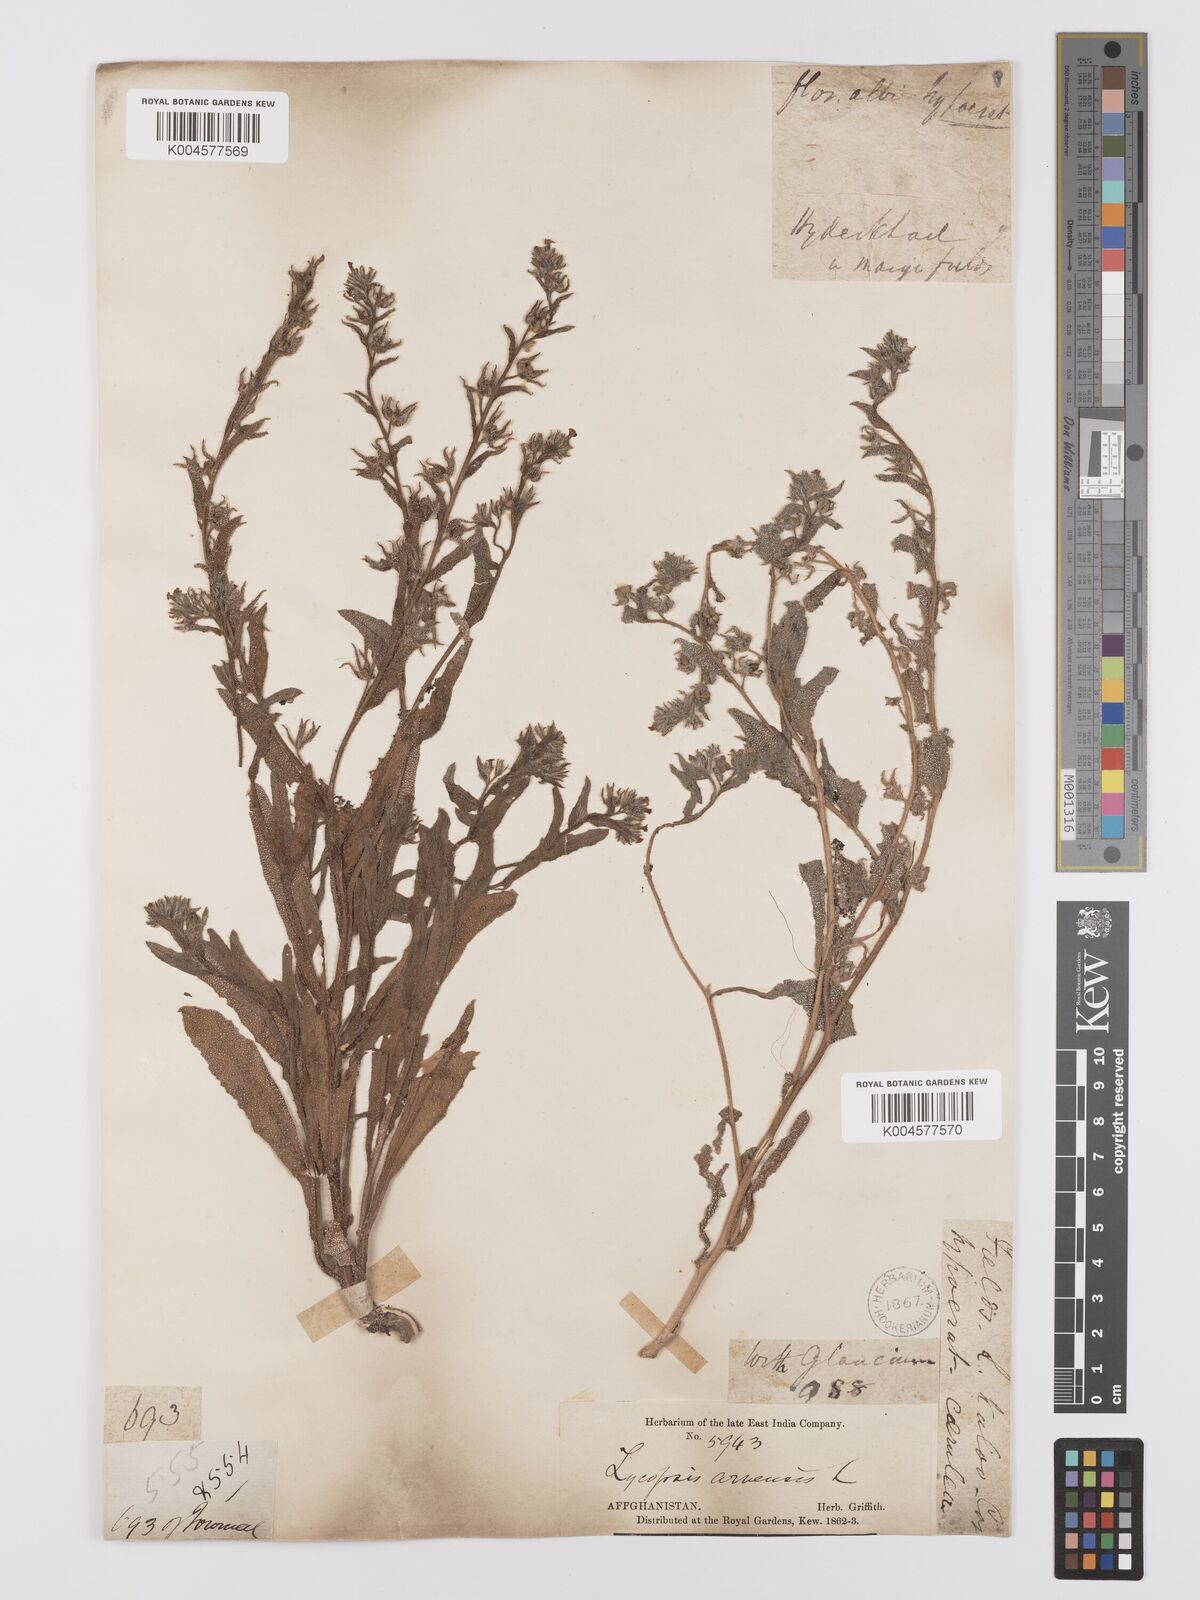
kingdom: Plantae
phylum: Tracheophyta
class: Magnoliopsida
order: Boraginales
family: Boraginaceae
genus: Lycopsis
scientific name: Lycopsis arvensis
